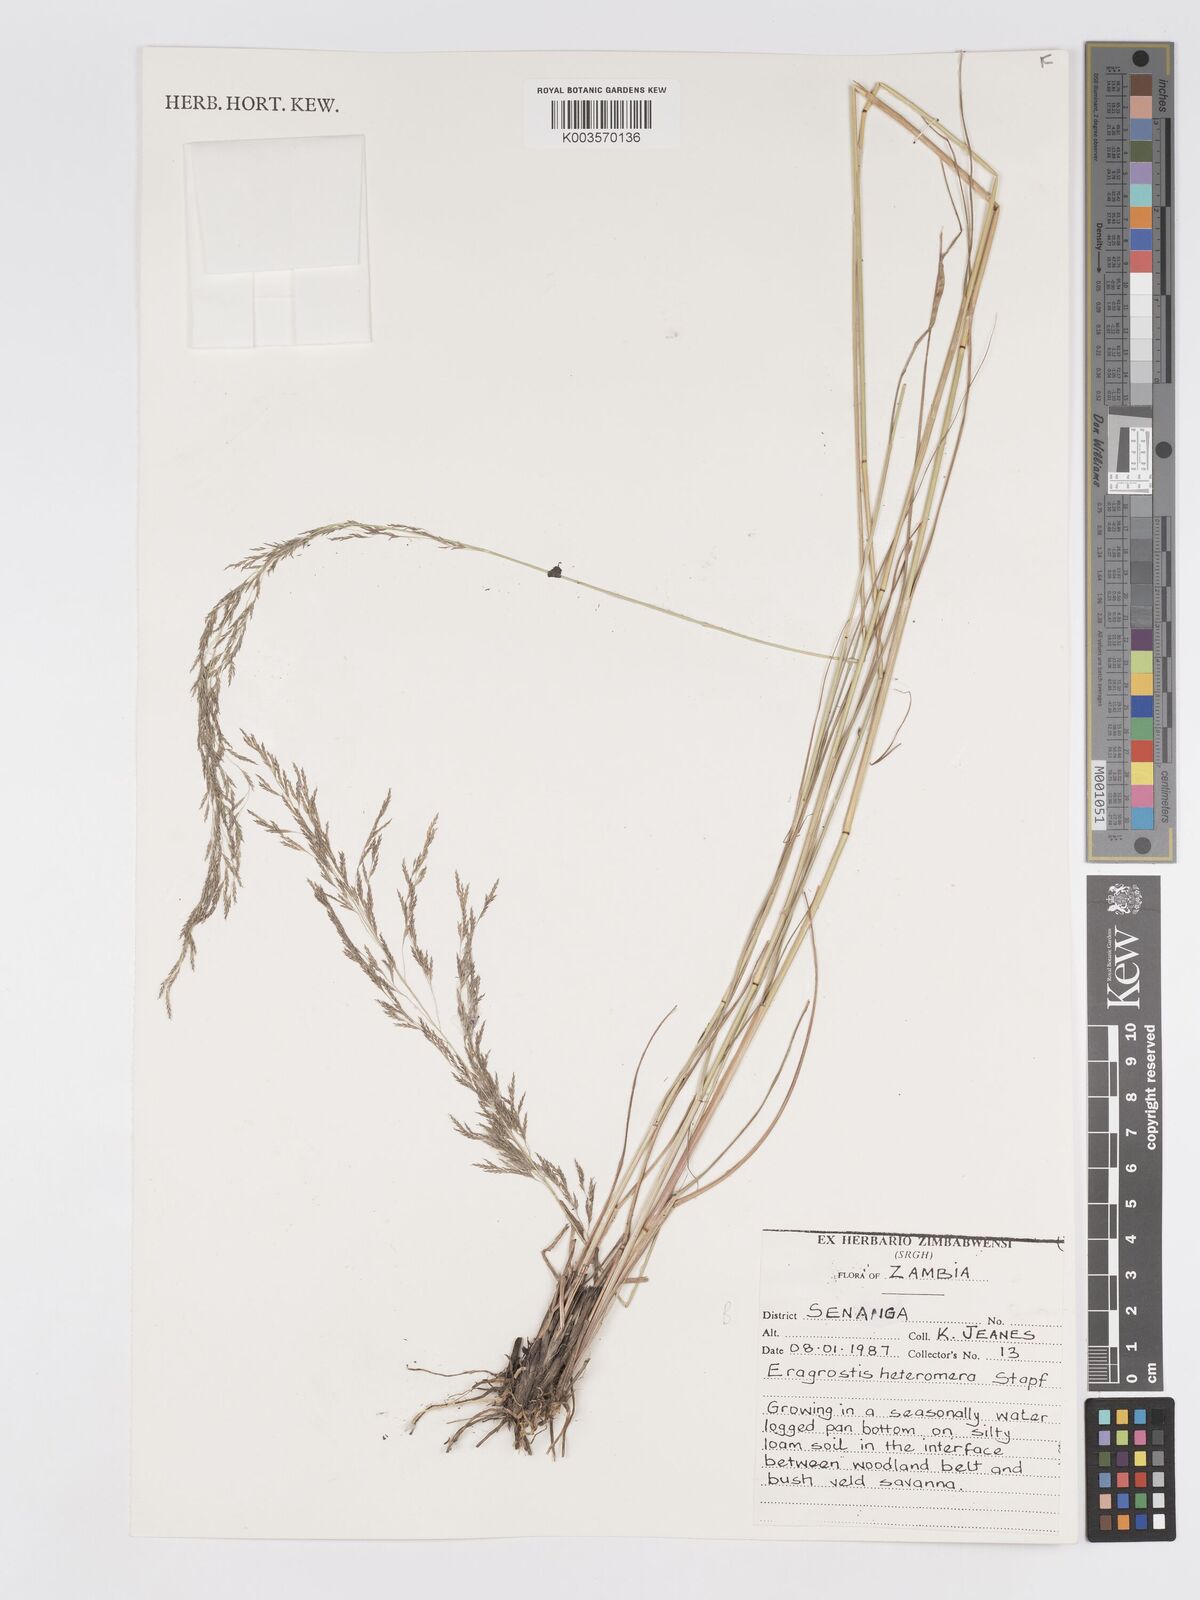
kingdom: Plantae
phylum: Tracheophyta
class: Liliopsida
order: Poales
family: Poaceae
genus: Eragrostis
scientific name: Eragrostis heteromera
